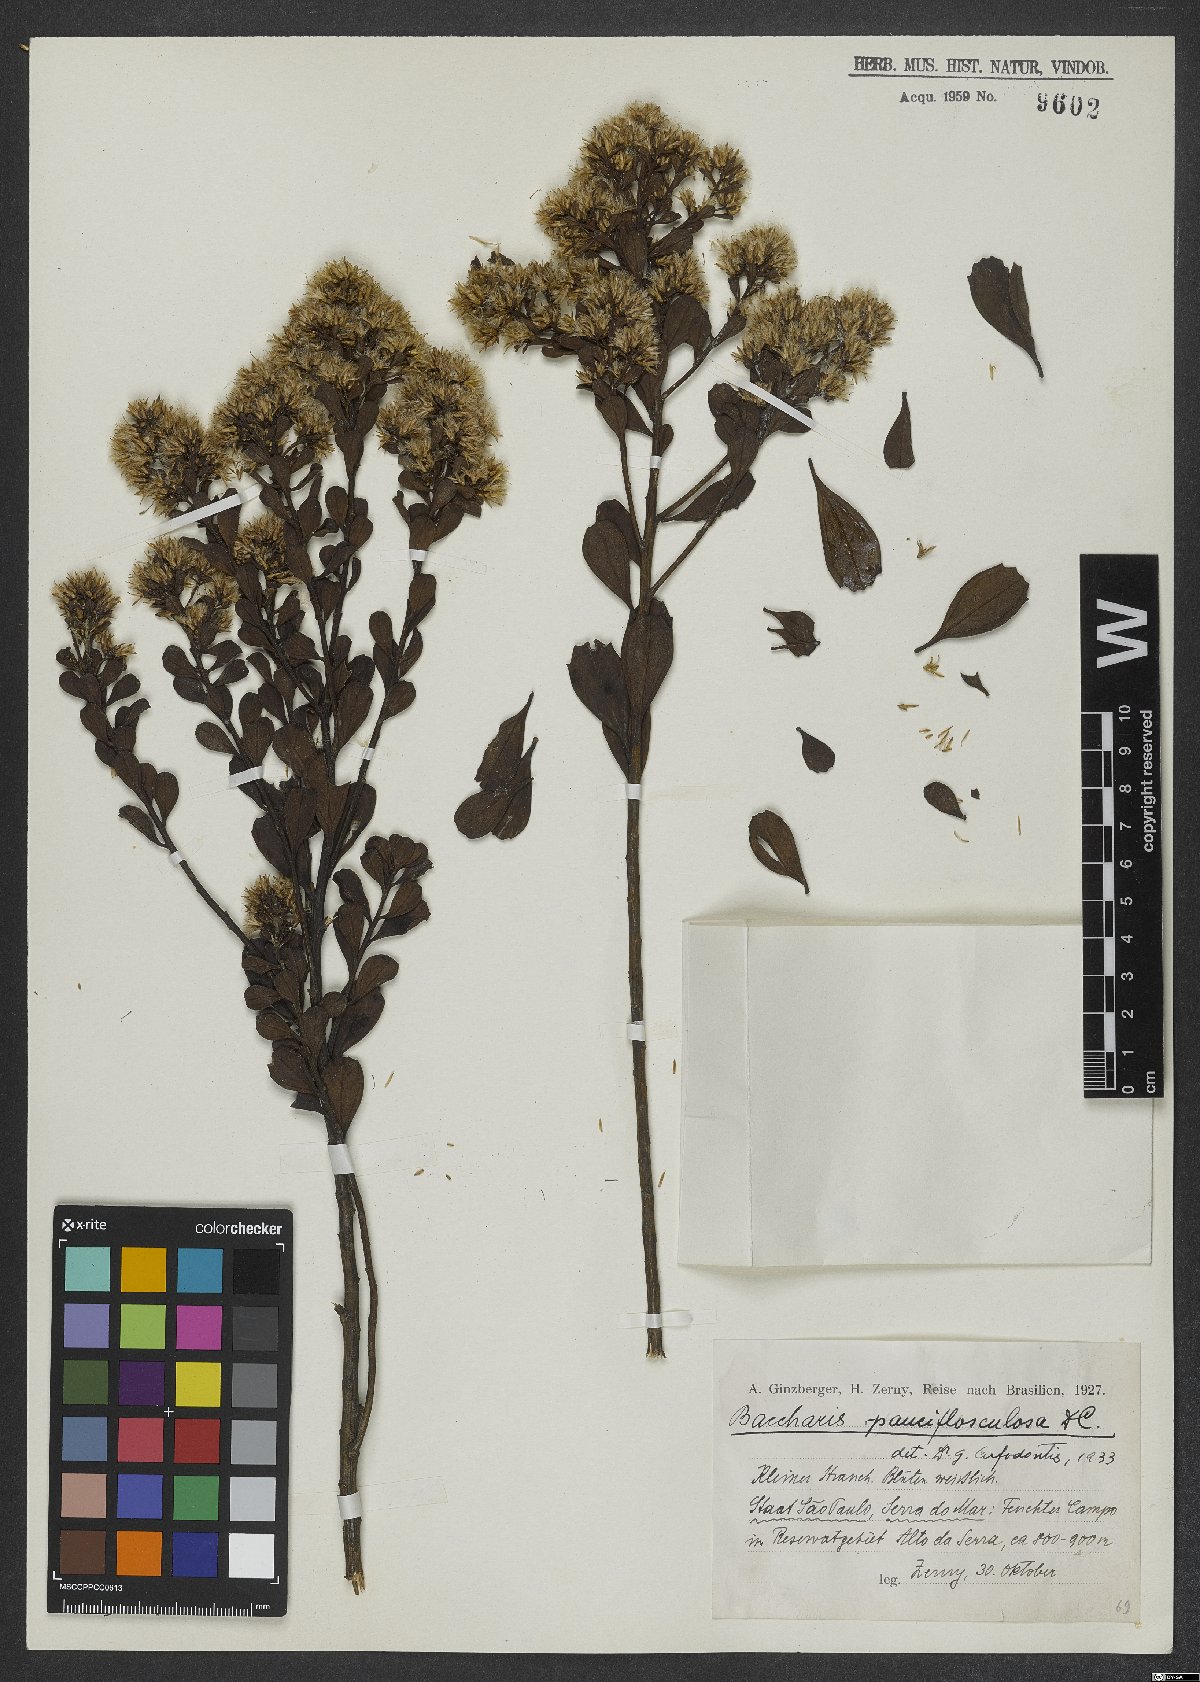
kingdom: Plantae
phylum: Tracheophyta
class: Magnoliopsida
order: Asterales
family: Asteraceae
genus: Baccharis
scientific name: Baccharis pauciflosculosa
